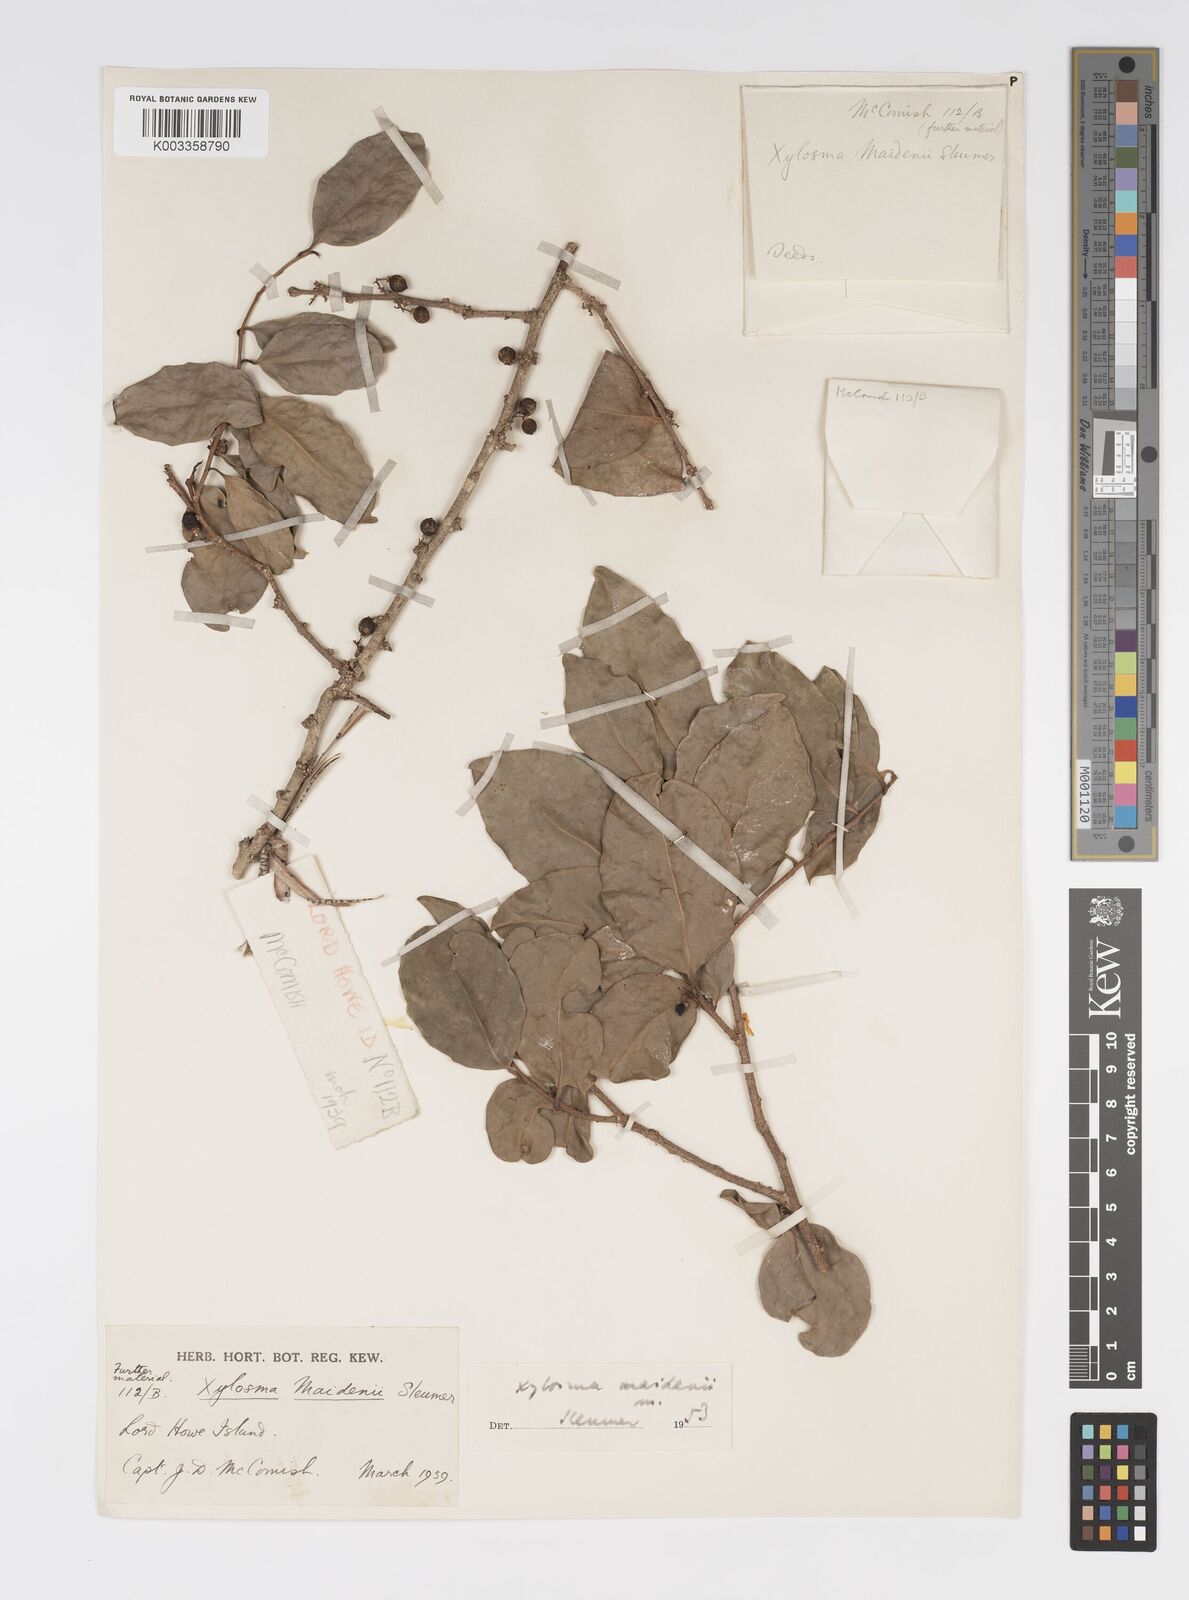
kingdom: Plantae
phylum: Tracheophyta
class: Magnoliopsida
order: Malpighiales
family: Salicaceae
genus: Xylosma
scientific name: Xylosma maidenii
